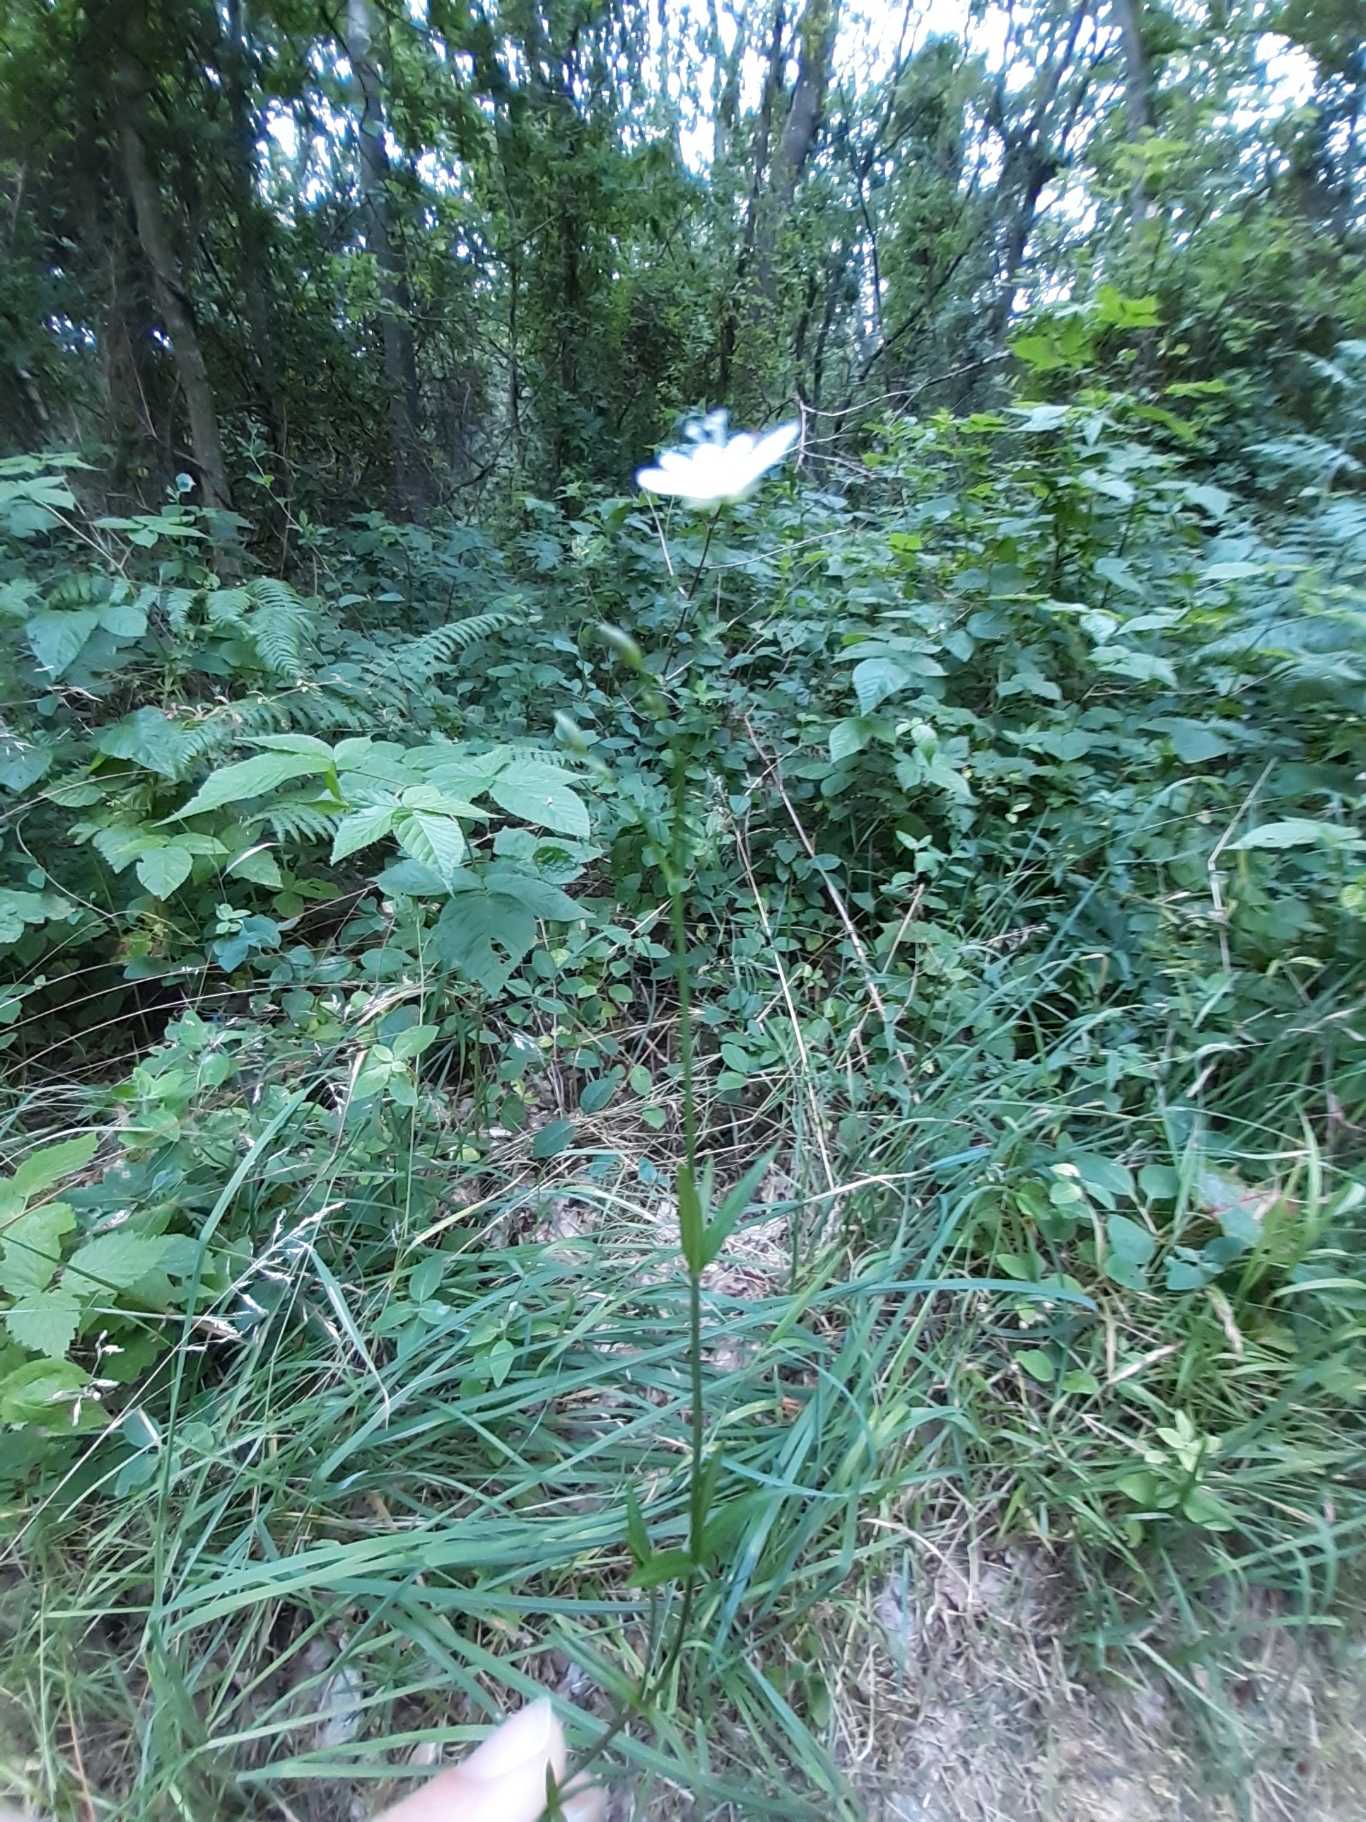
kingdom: Plantae
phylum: Tracheophyta
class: Magnoliopsida
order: Caryophyllales
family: Caryophyllaceae
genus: Stellaria
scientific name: Stellaria graminea
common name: Græsbladet fladstjerne
